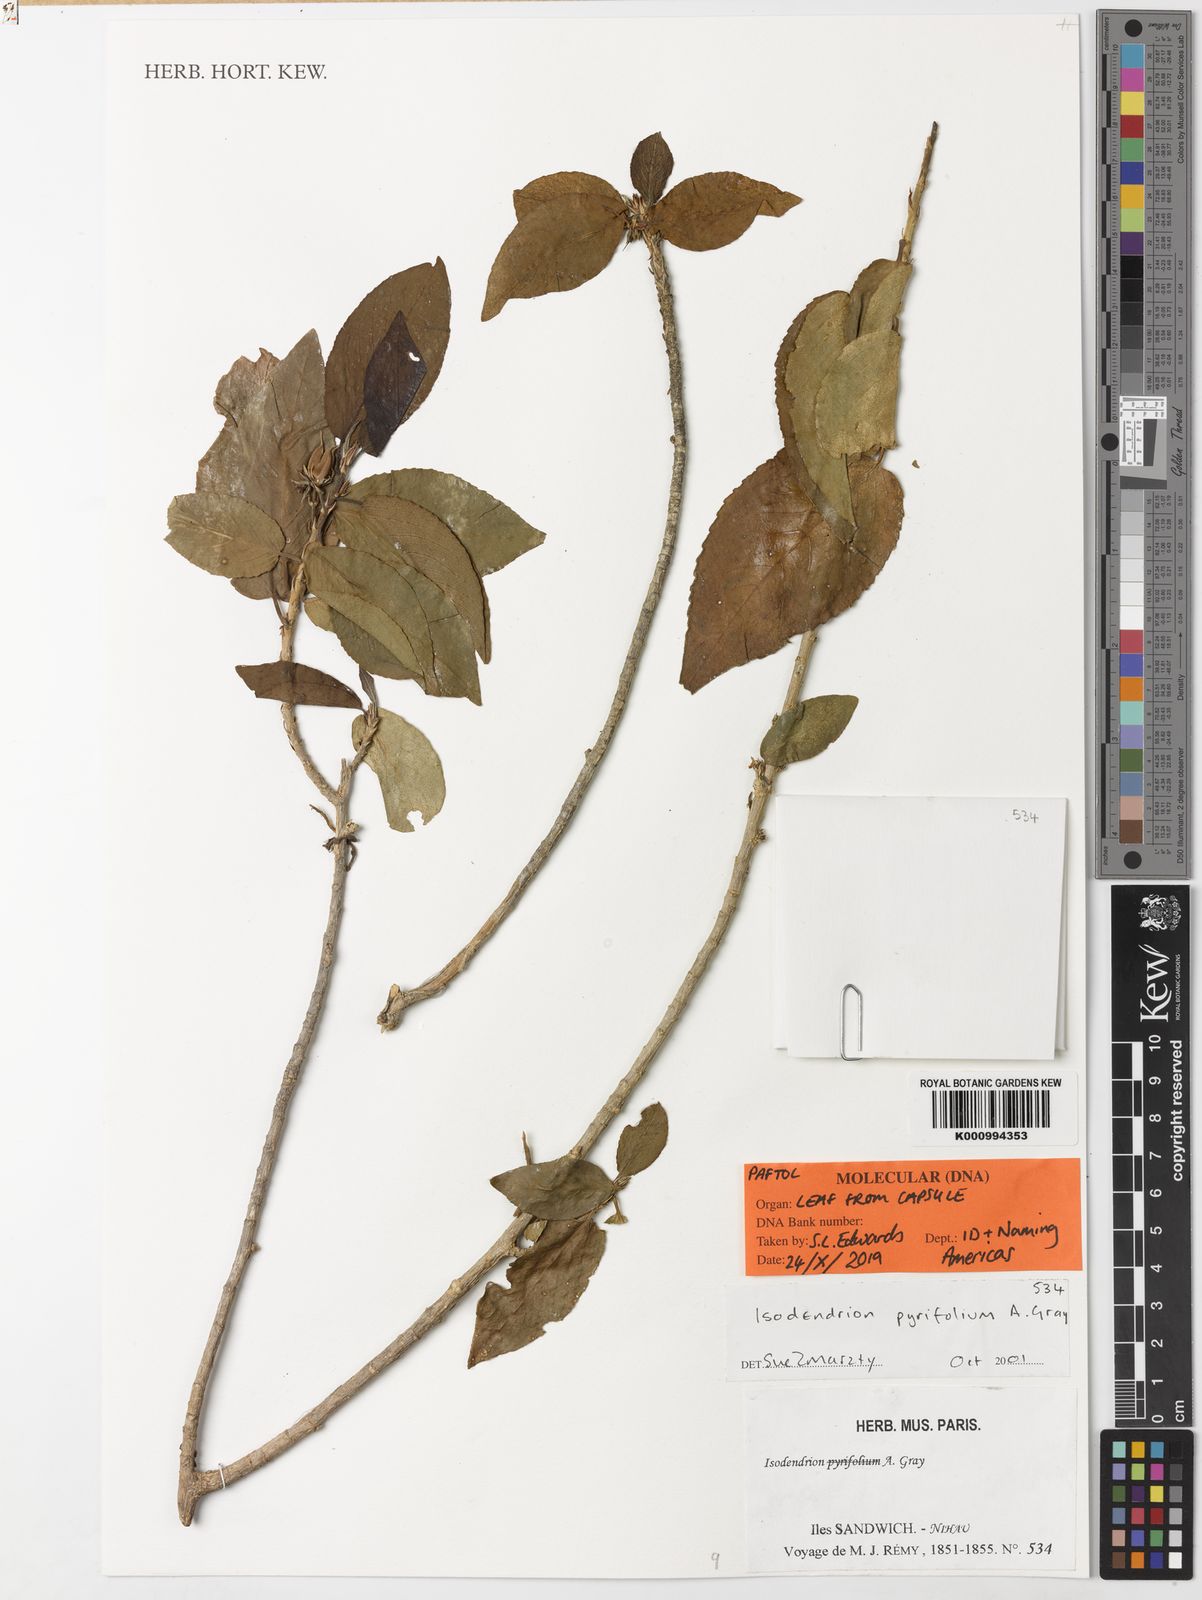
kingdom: Plantae
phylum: Tracheophyta
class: Magnoliopsida
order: Malpighiales
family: Violaceae
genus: Isodendrion
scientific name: Isodendrion
